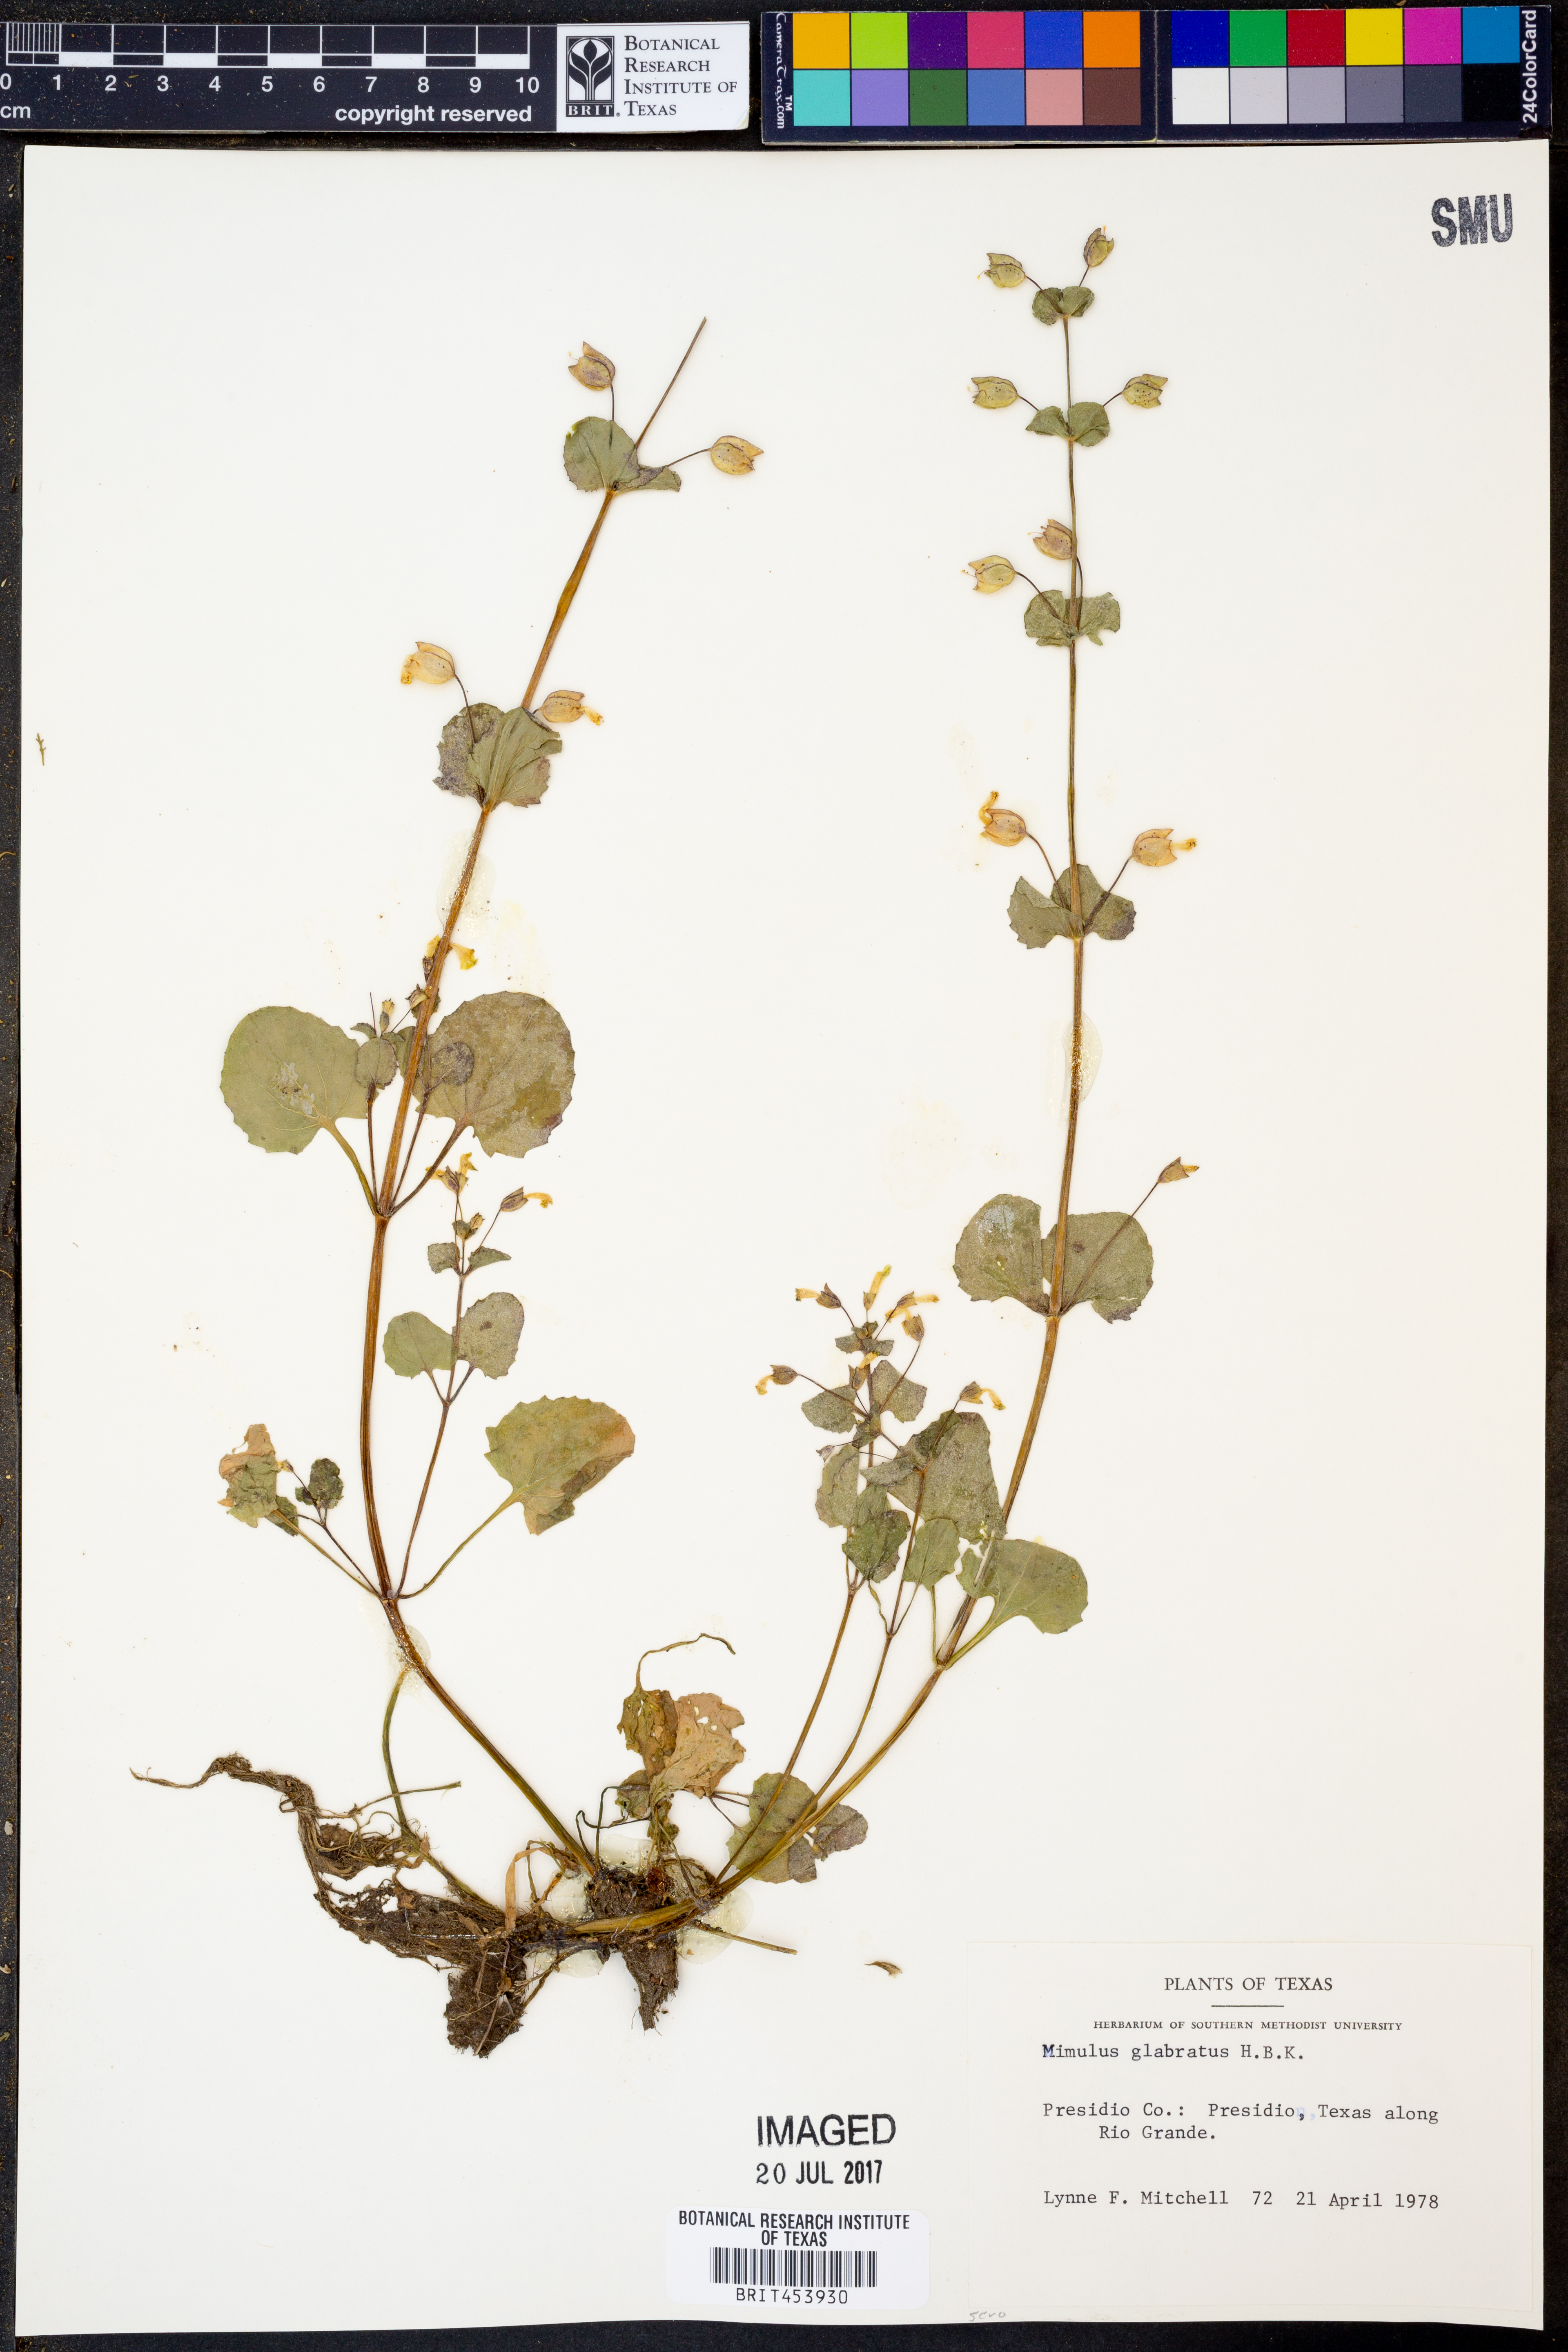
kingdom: Plantae
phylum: Tracheophyta
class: Magnoliopsida
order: Lamiales
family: Phrymaceae
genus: Erythranthe
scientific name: Erythranthe glabrata
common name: Round-leaved monkeyflower
